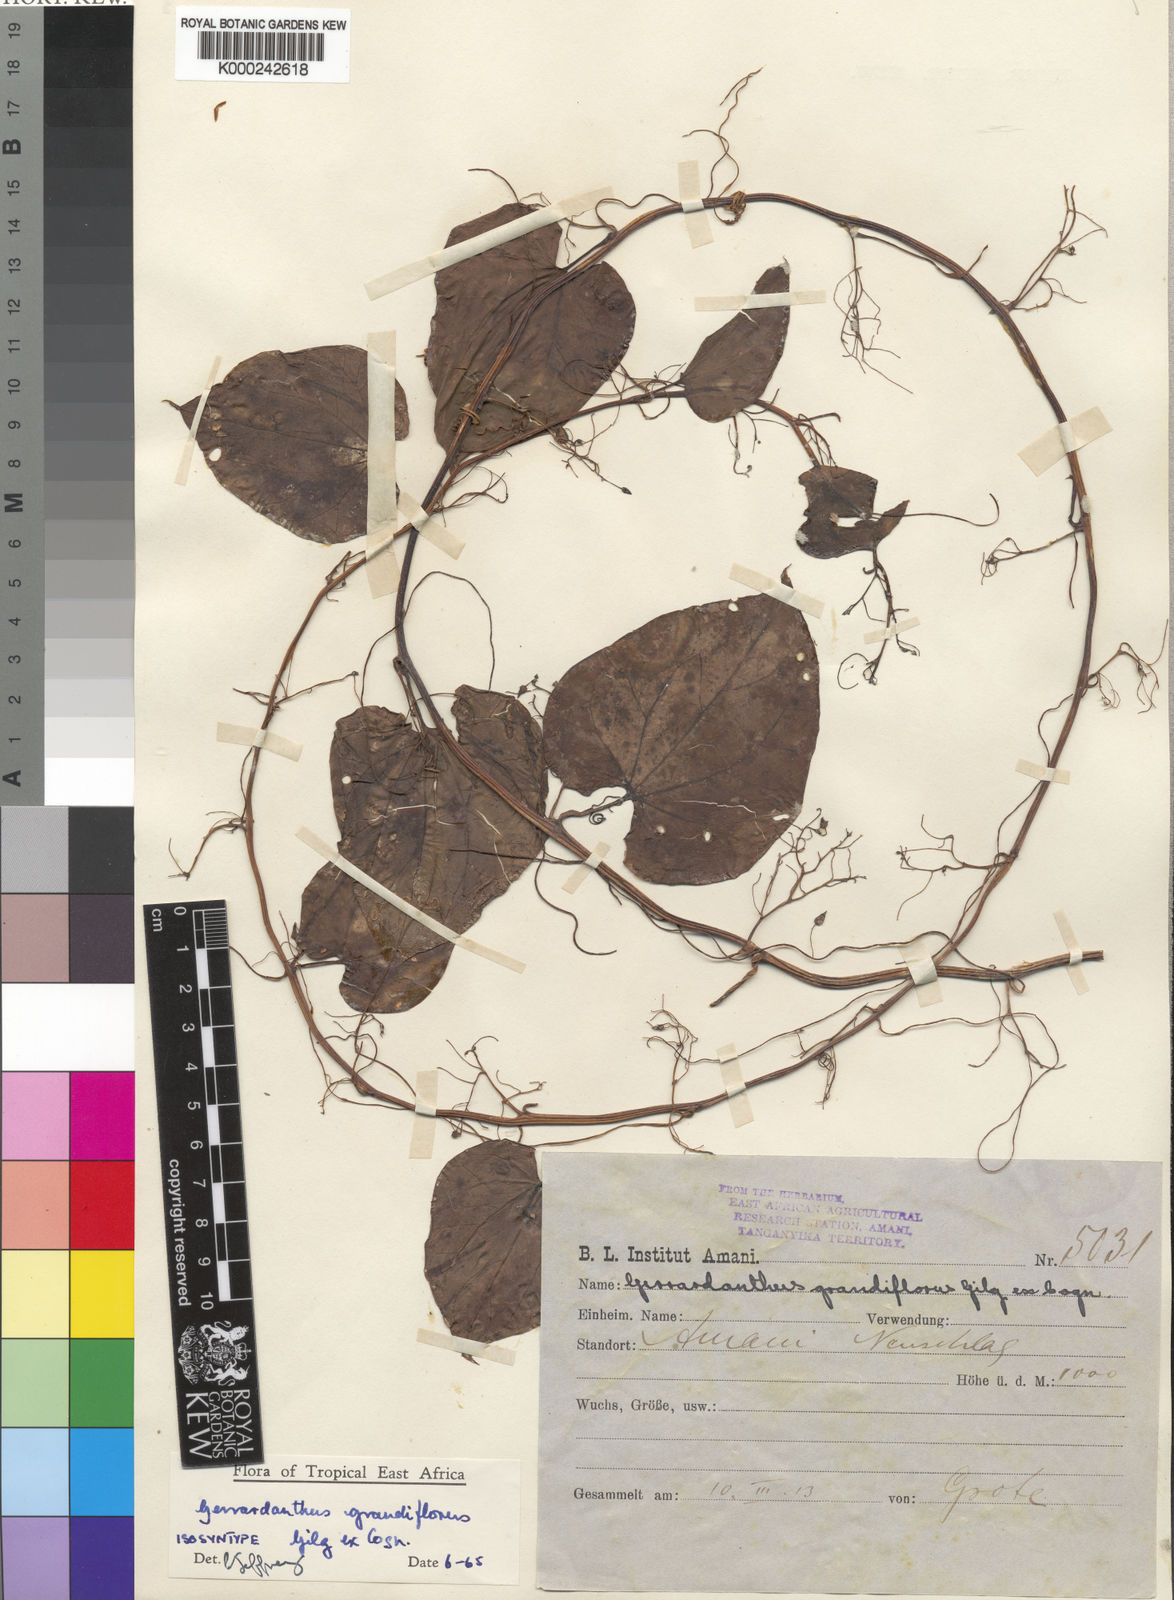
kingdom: Plantae
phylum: Tracheophyta
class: Magnoliopsida
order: Cucurbitales
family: Cucurbitaceae
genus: Gerrardanthus
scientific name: Gerrardanthus grandiflorus
